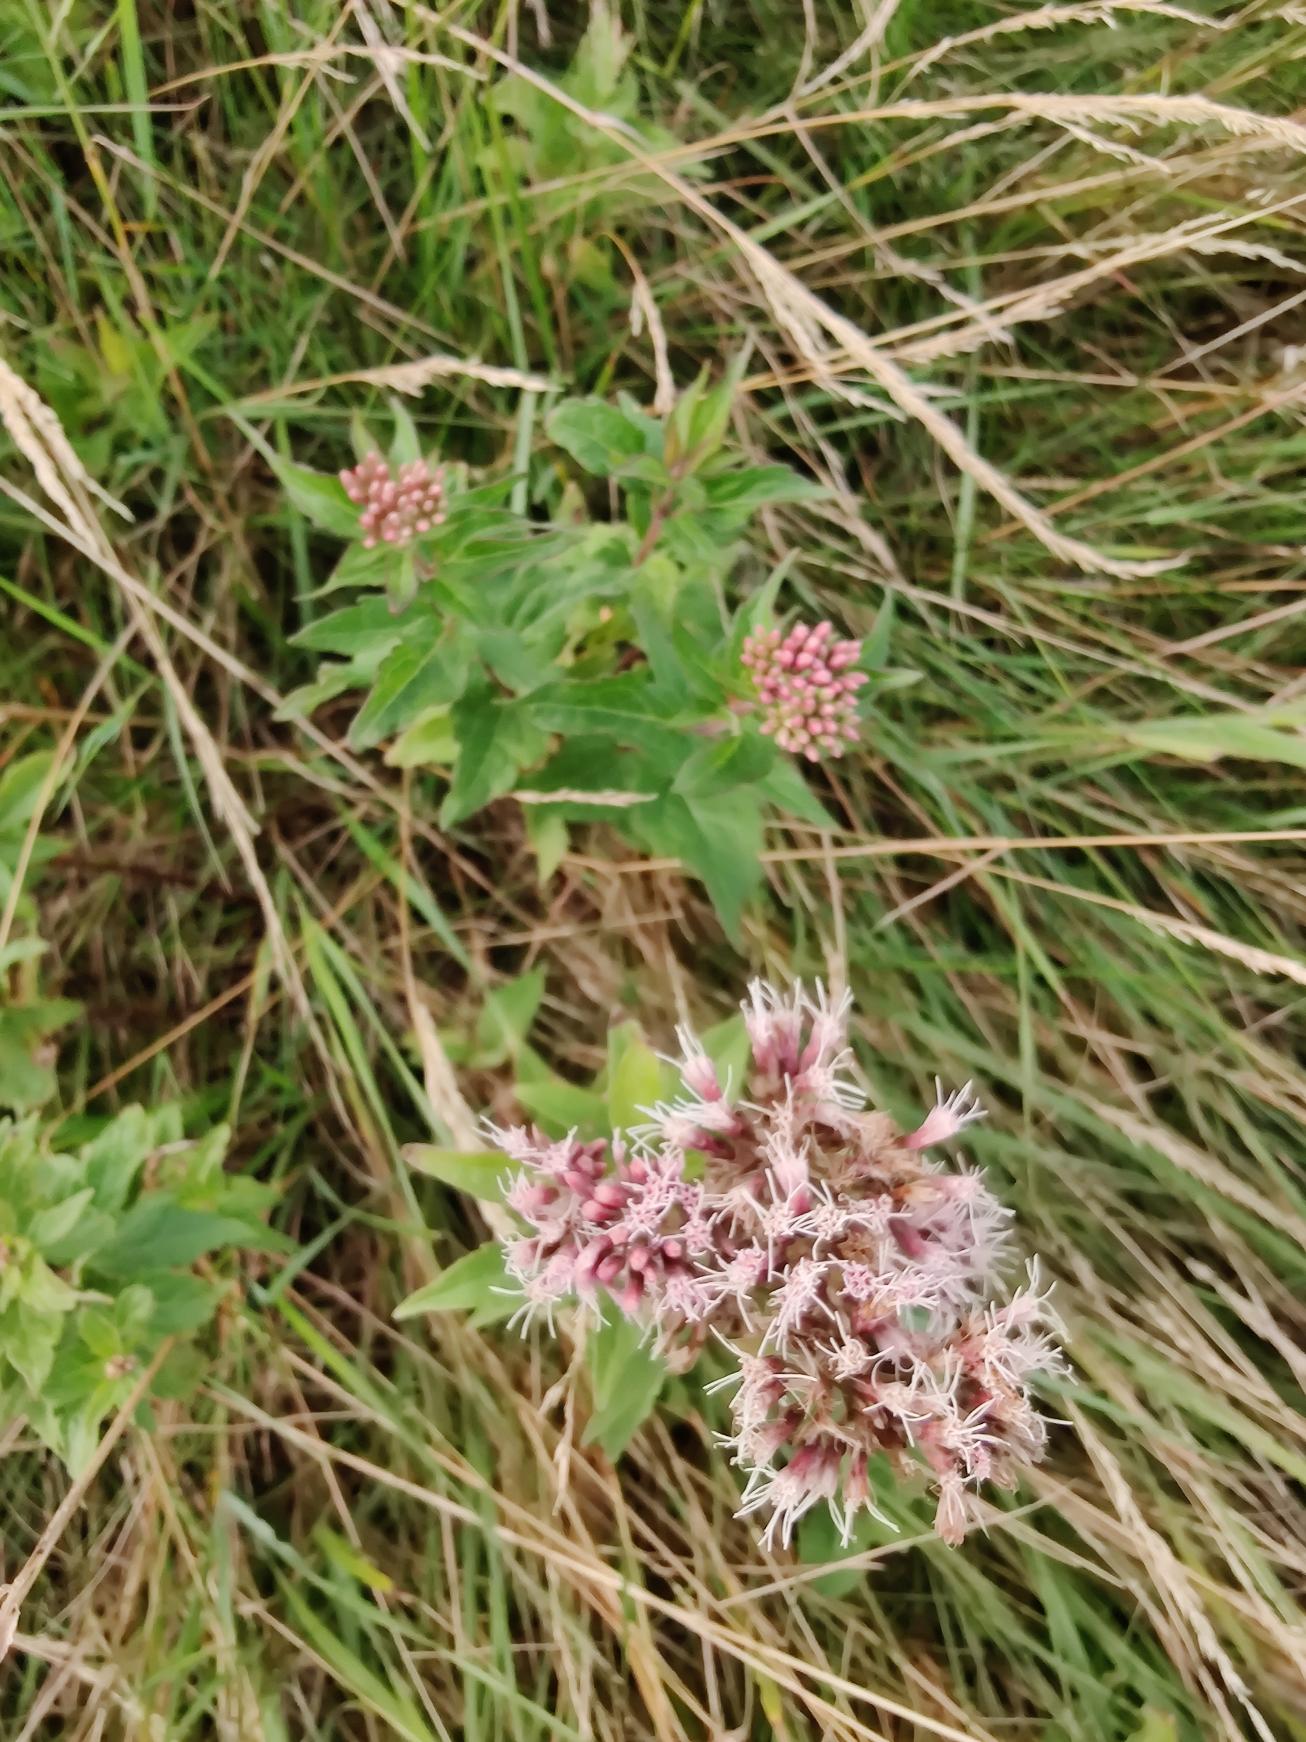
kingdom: Plantae
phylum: Tracheophyta
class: Magnoliopsida
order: Asterales
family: Asteraceae
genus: Eupatorium
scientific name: Eupatorium cannabinum
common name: Hjortetrøst
